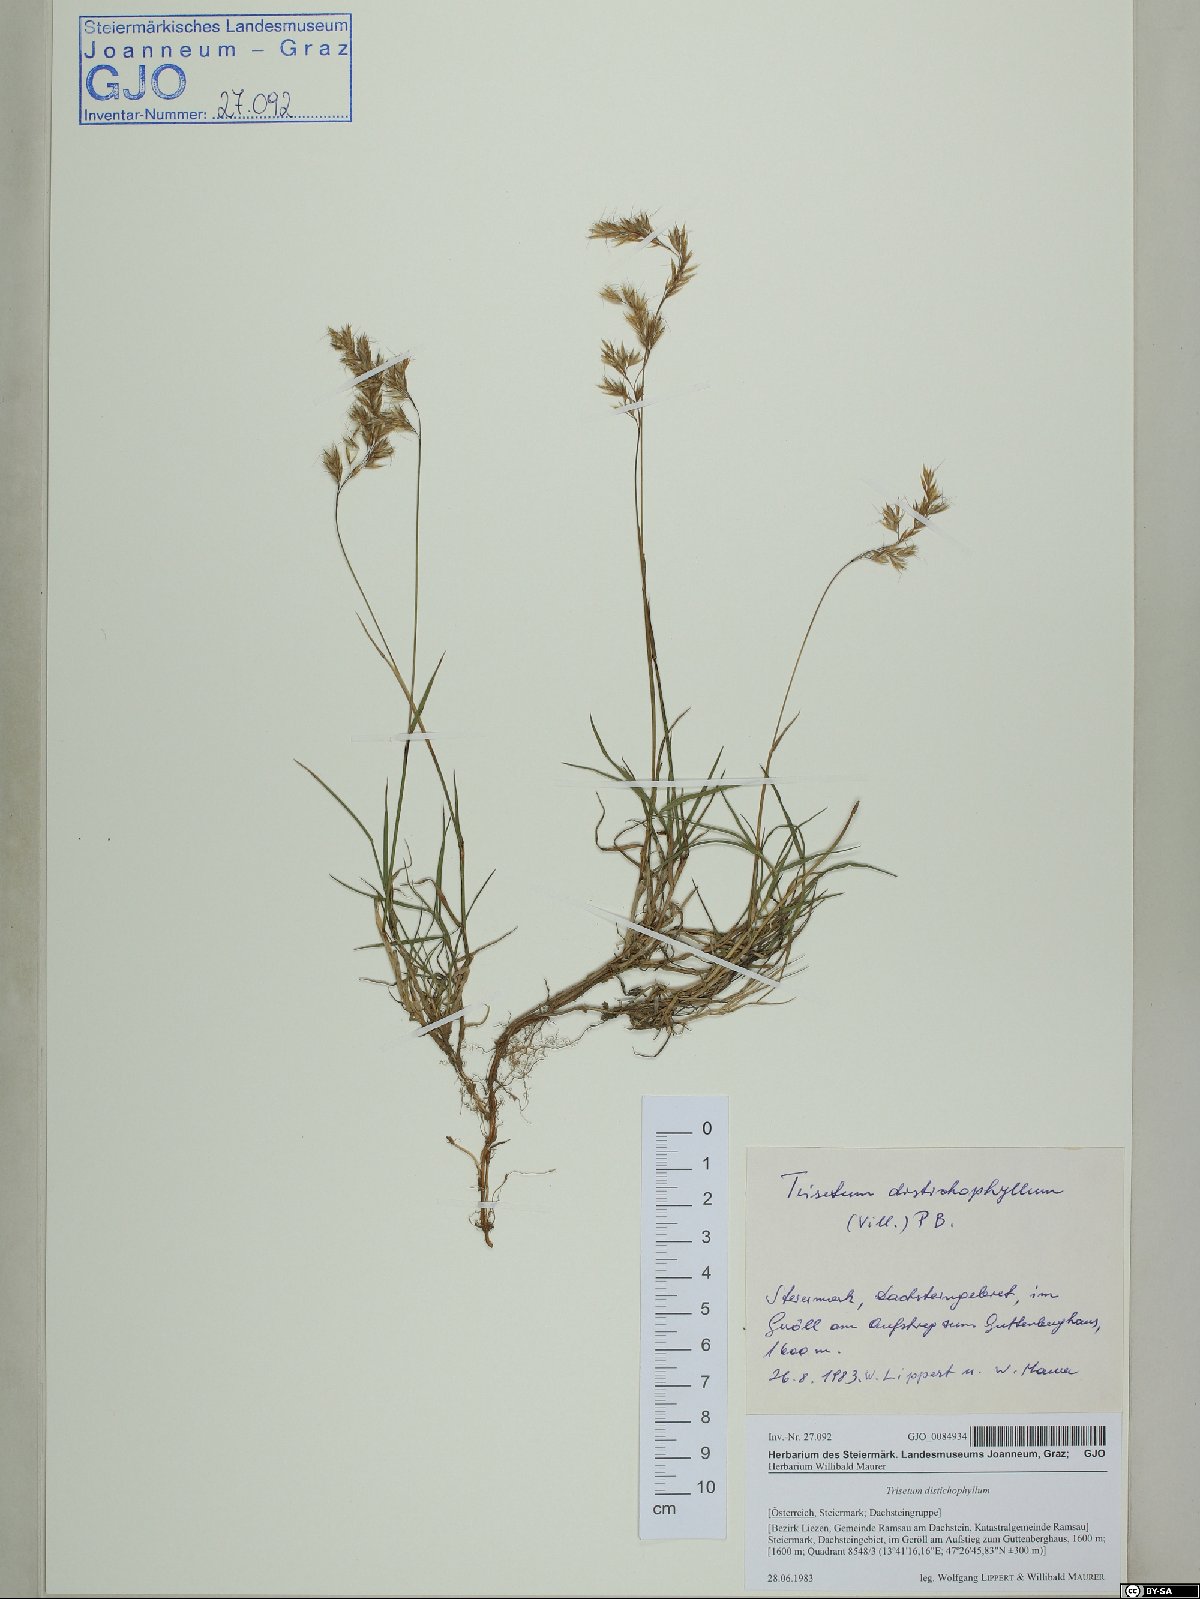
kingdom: Plantae
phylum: Tracheophyta
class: Liliopsida
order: Poales
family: Poaceae
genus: Acrospelion
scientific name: Acrospelion distichophyllum
